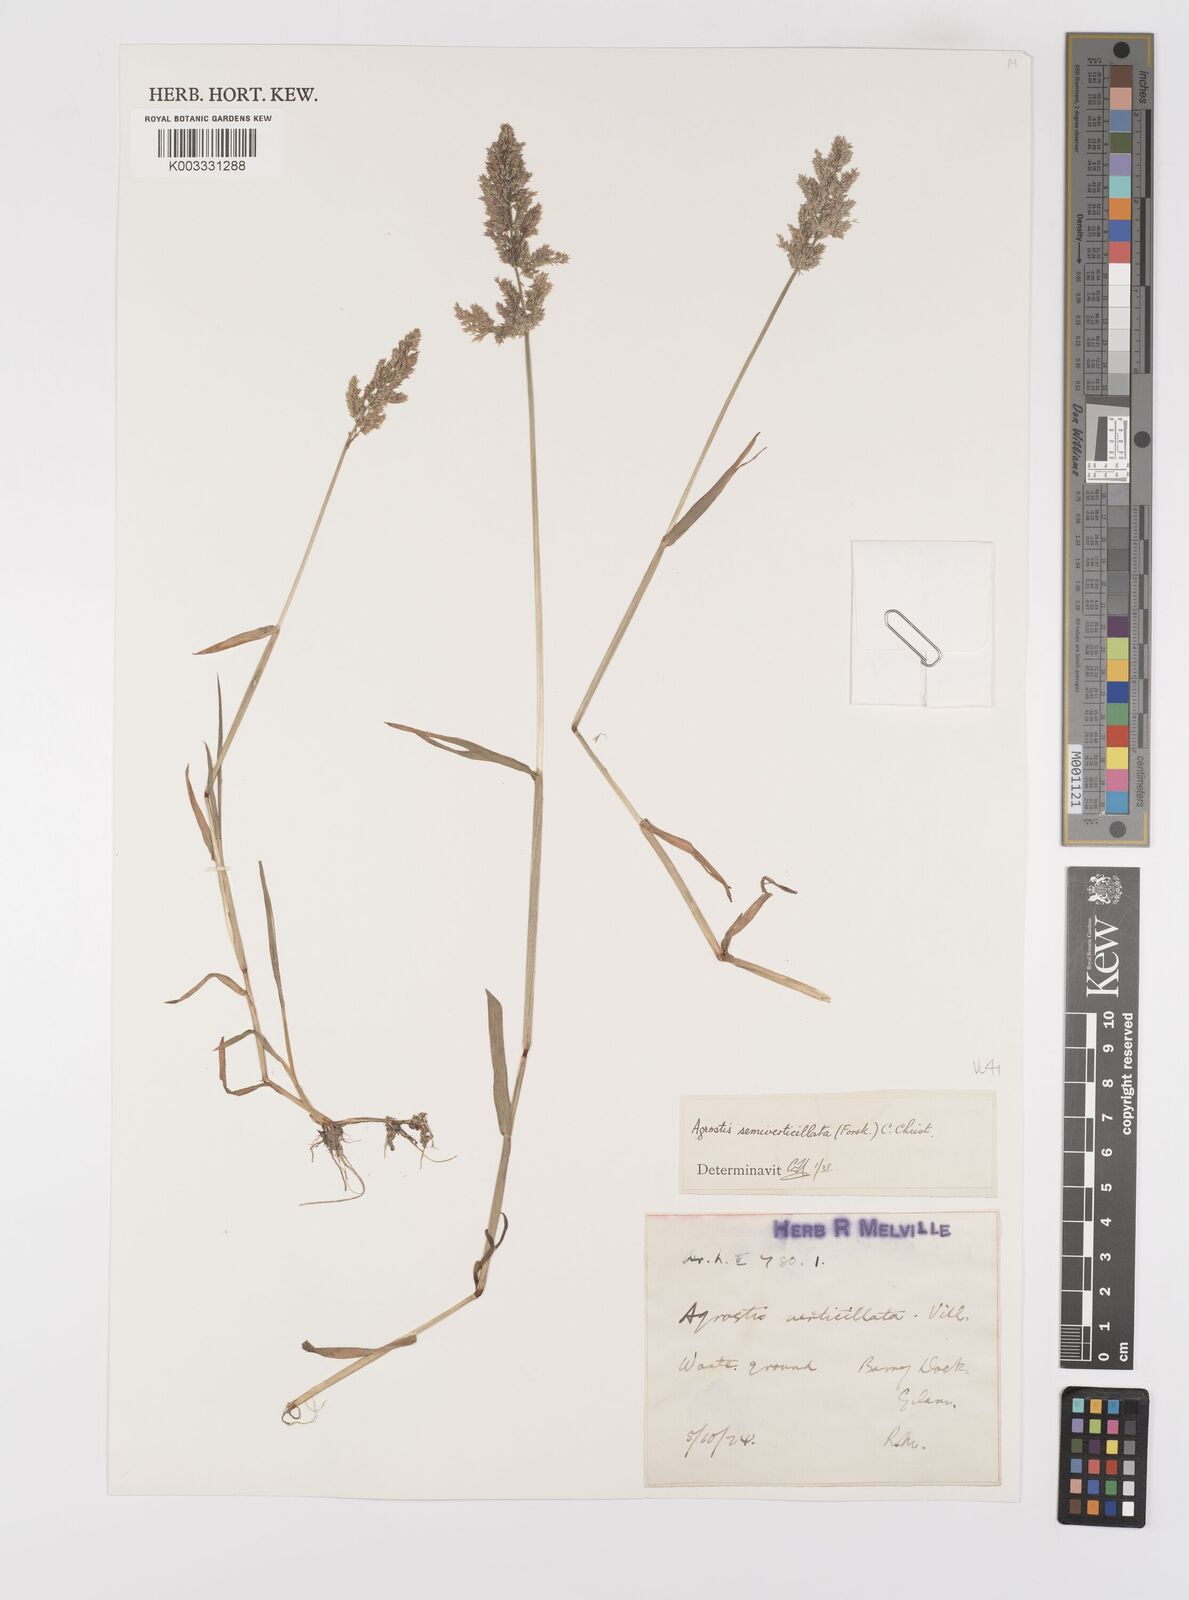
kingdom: Plantae
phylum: Tracheophyta
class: Liliopsida
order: Poales
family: Poaceae
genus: Polypogon
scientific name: Polypogon viridis
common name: Water bent
